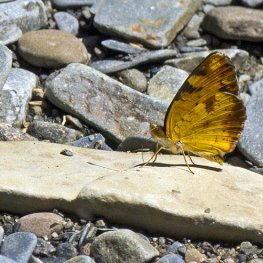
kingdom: Animalia
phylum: Arthropoda
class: Insecta
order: Lepidoptera
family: Nymphalidae
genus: Phyciodes
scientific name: Phyciodes tharos
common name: Northern Crescent
